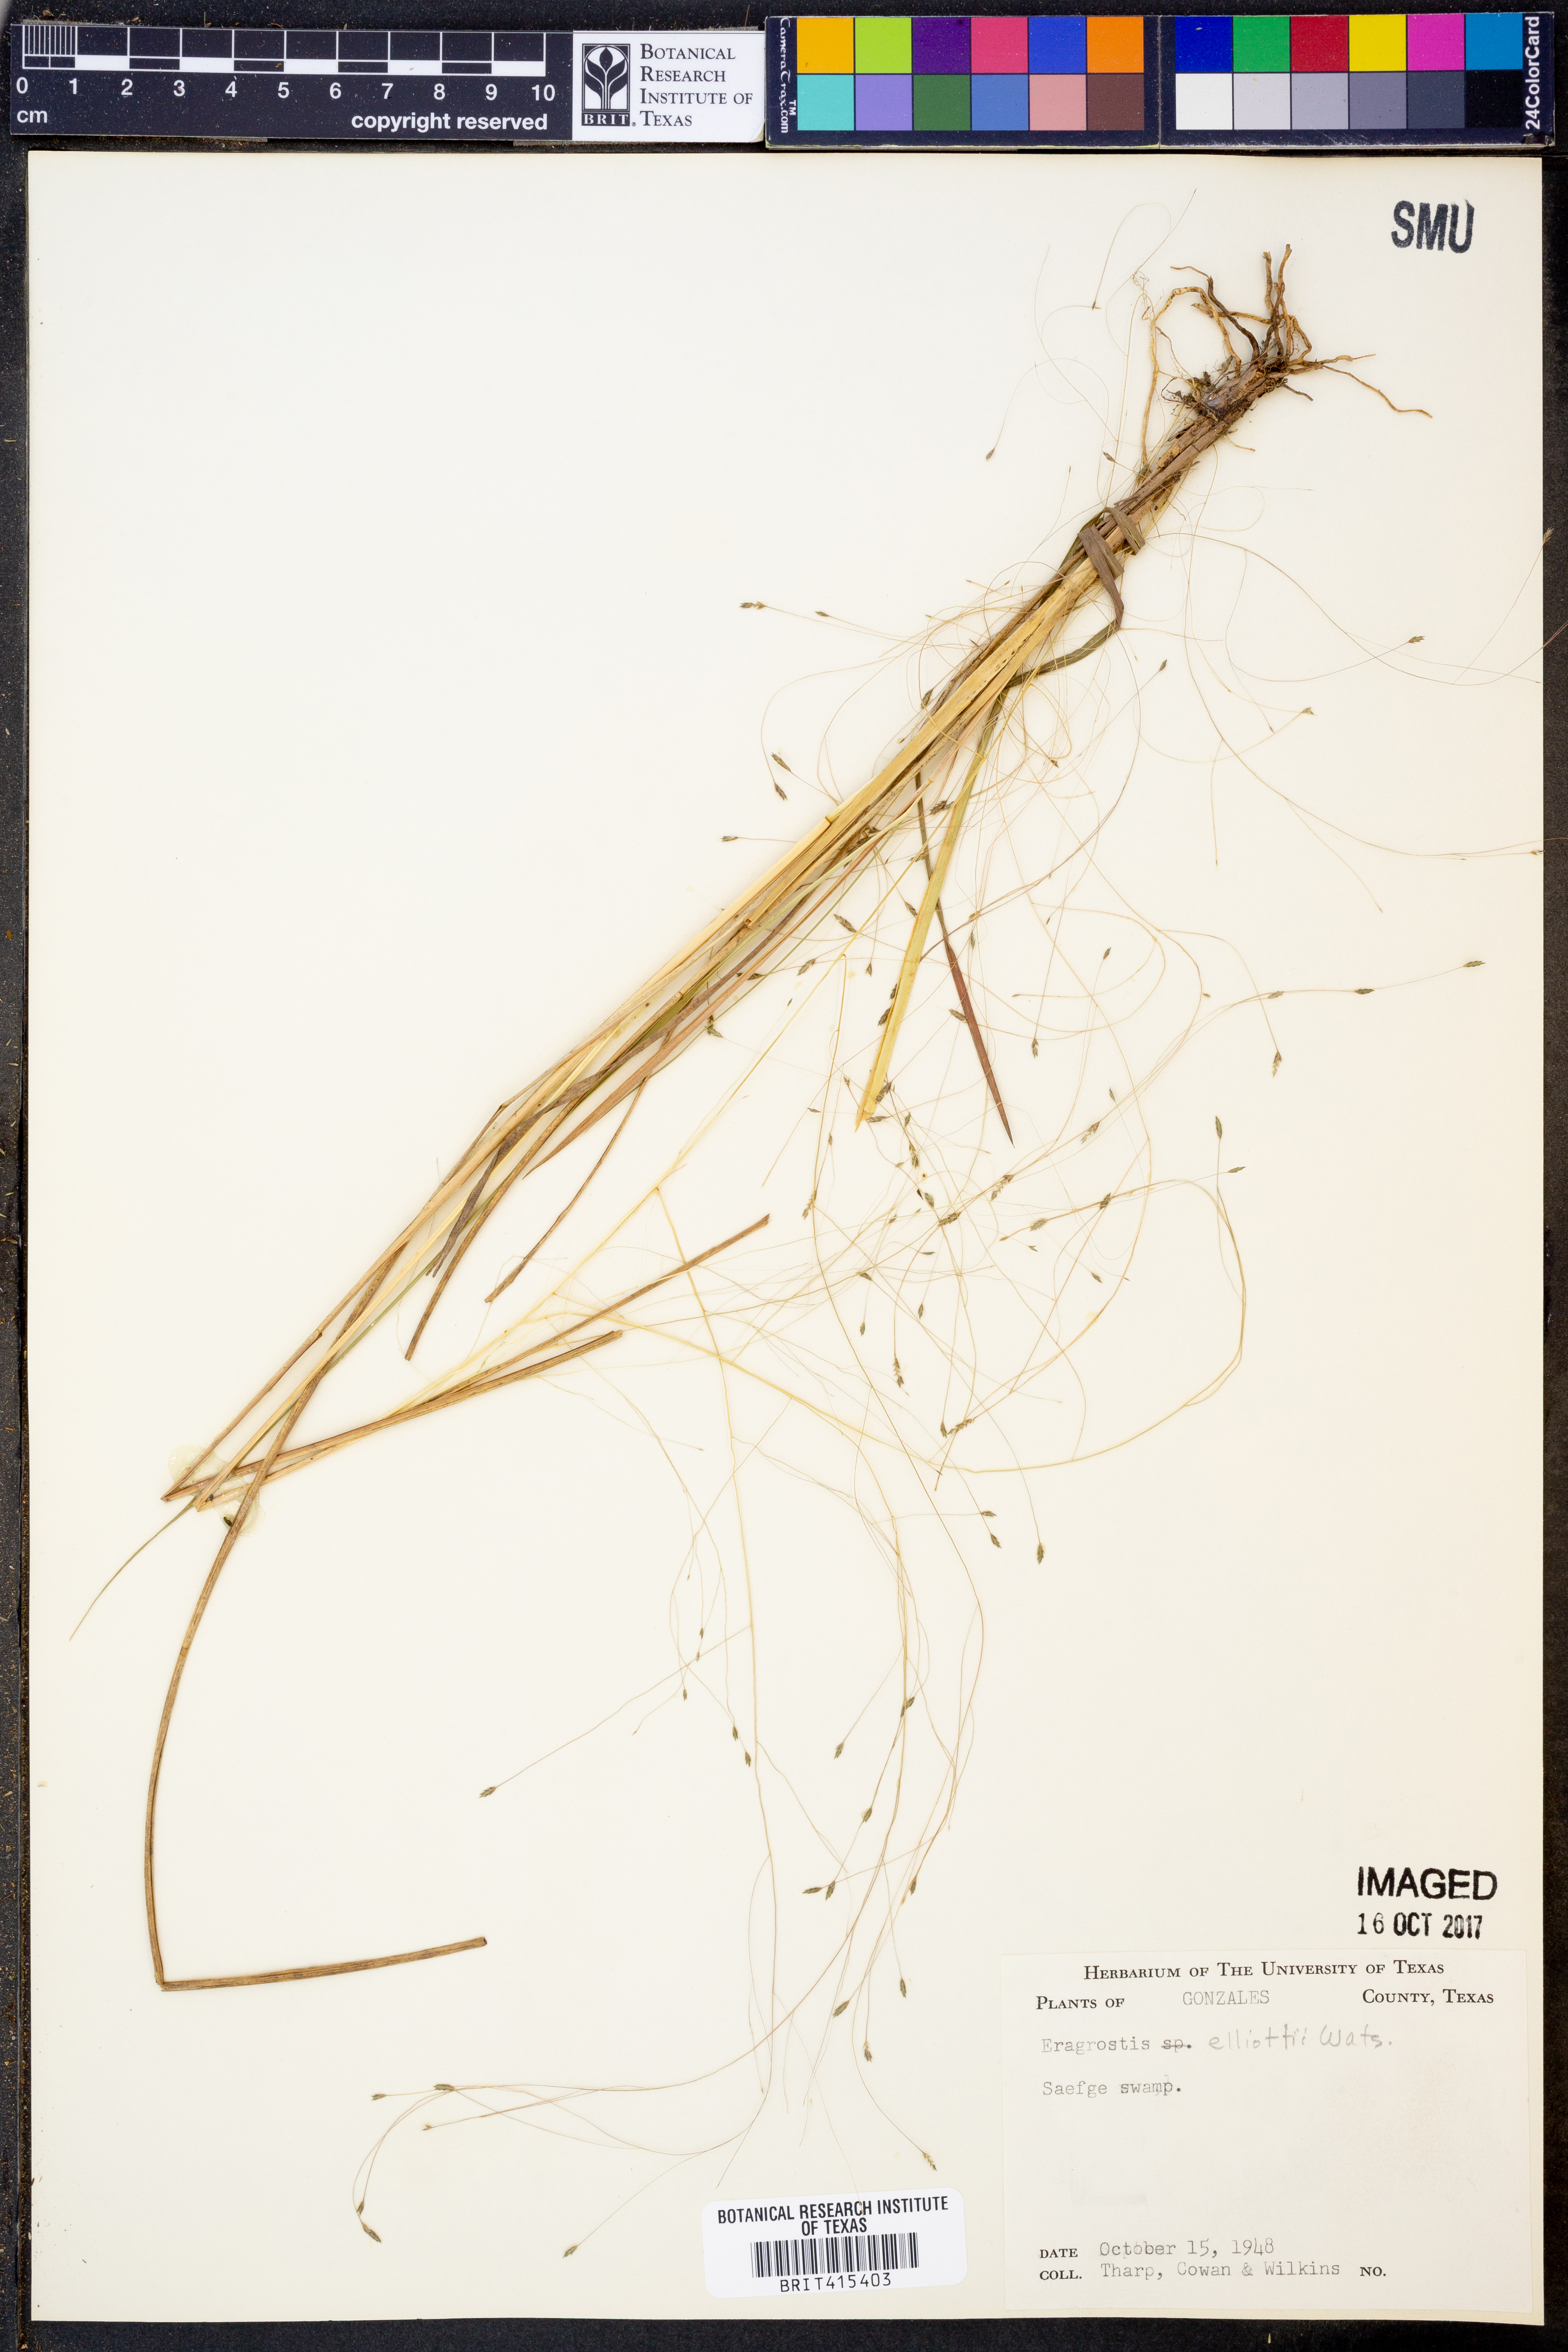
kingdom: Plantae
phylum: Tracheophyta
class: Liliopsida
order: Poales
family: Poaceae
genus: Eragrostis
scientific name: Eragrostis elliottii
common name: Elliott's love grass
